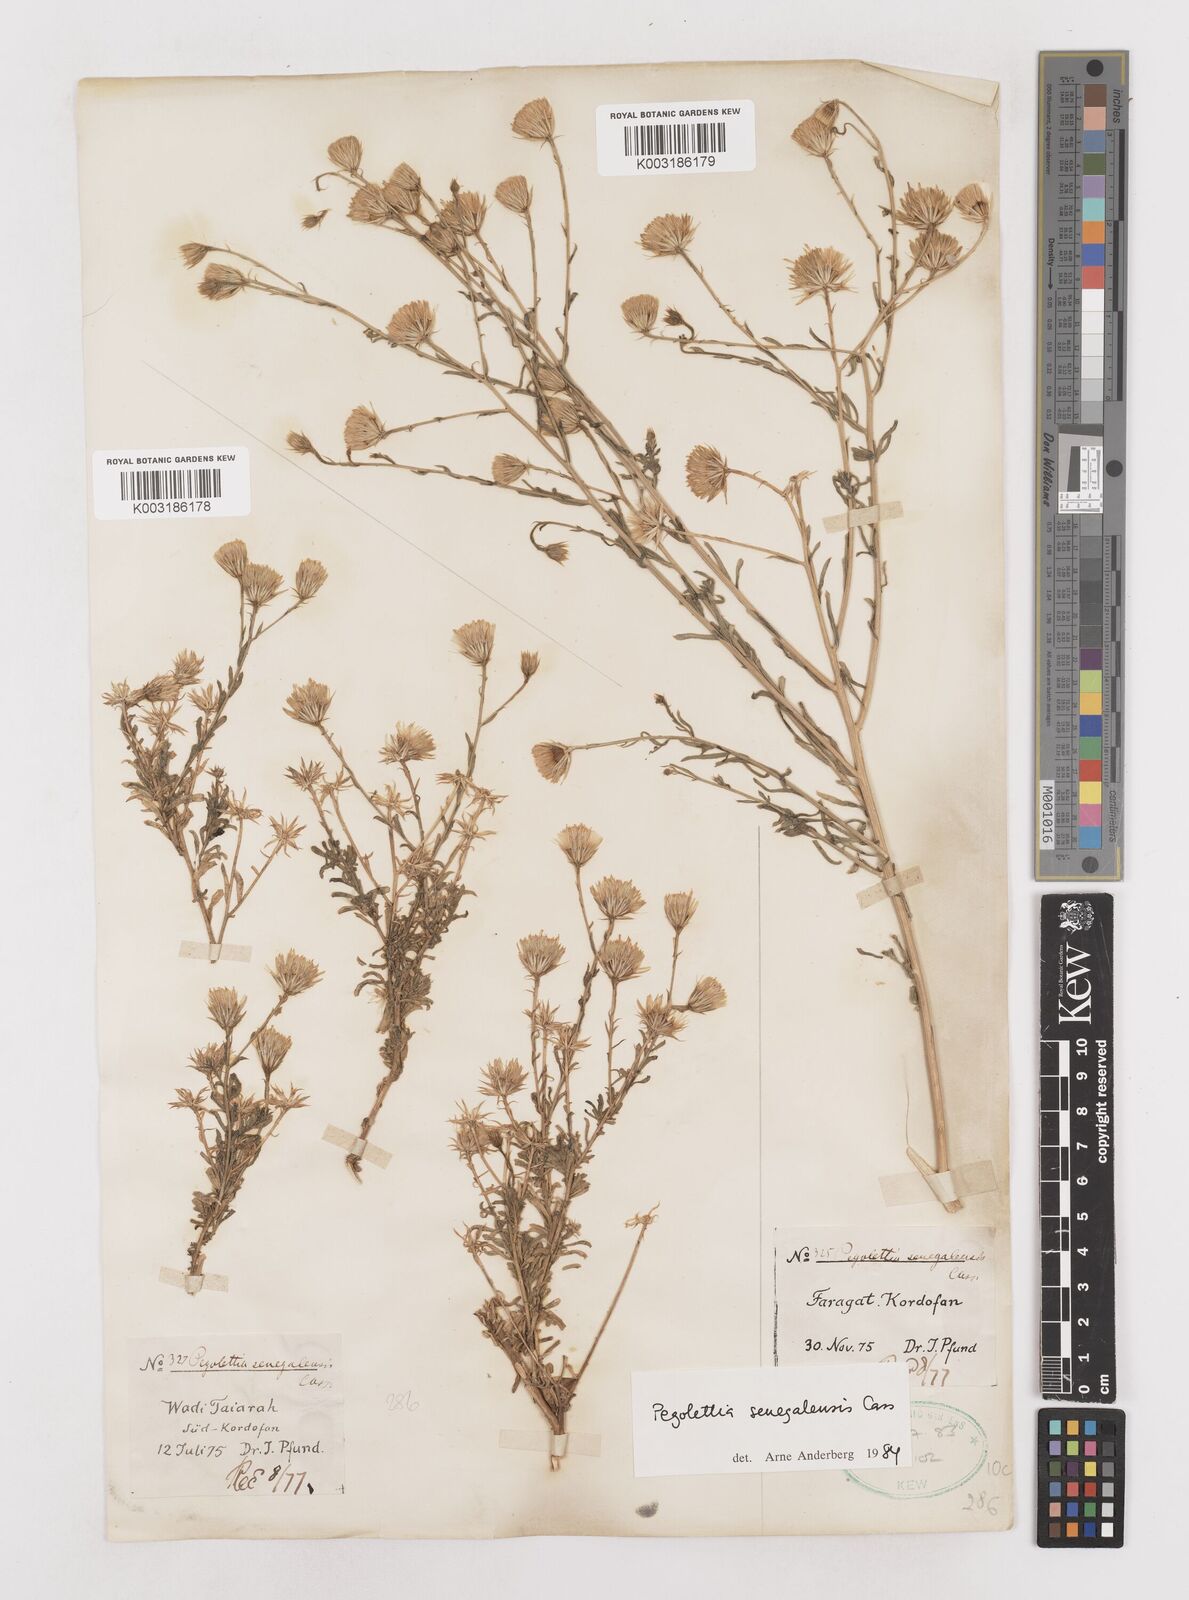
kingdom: Plantae
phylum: Tracheophyta
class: Magnoliopsida
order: Asterales
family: Asteraceae
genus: Pegolettia
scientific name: Pegolettia senegalensis
